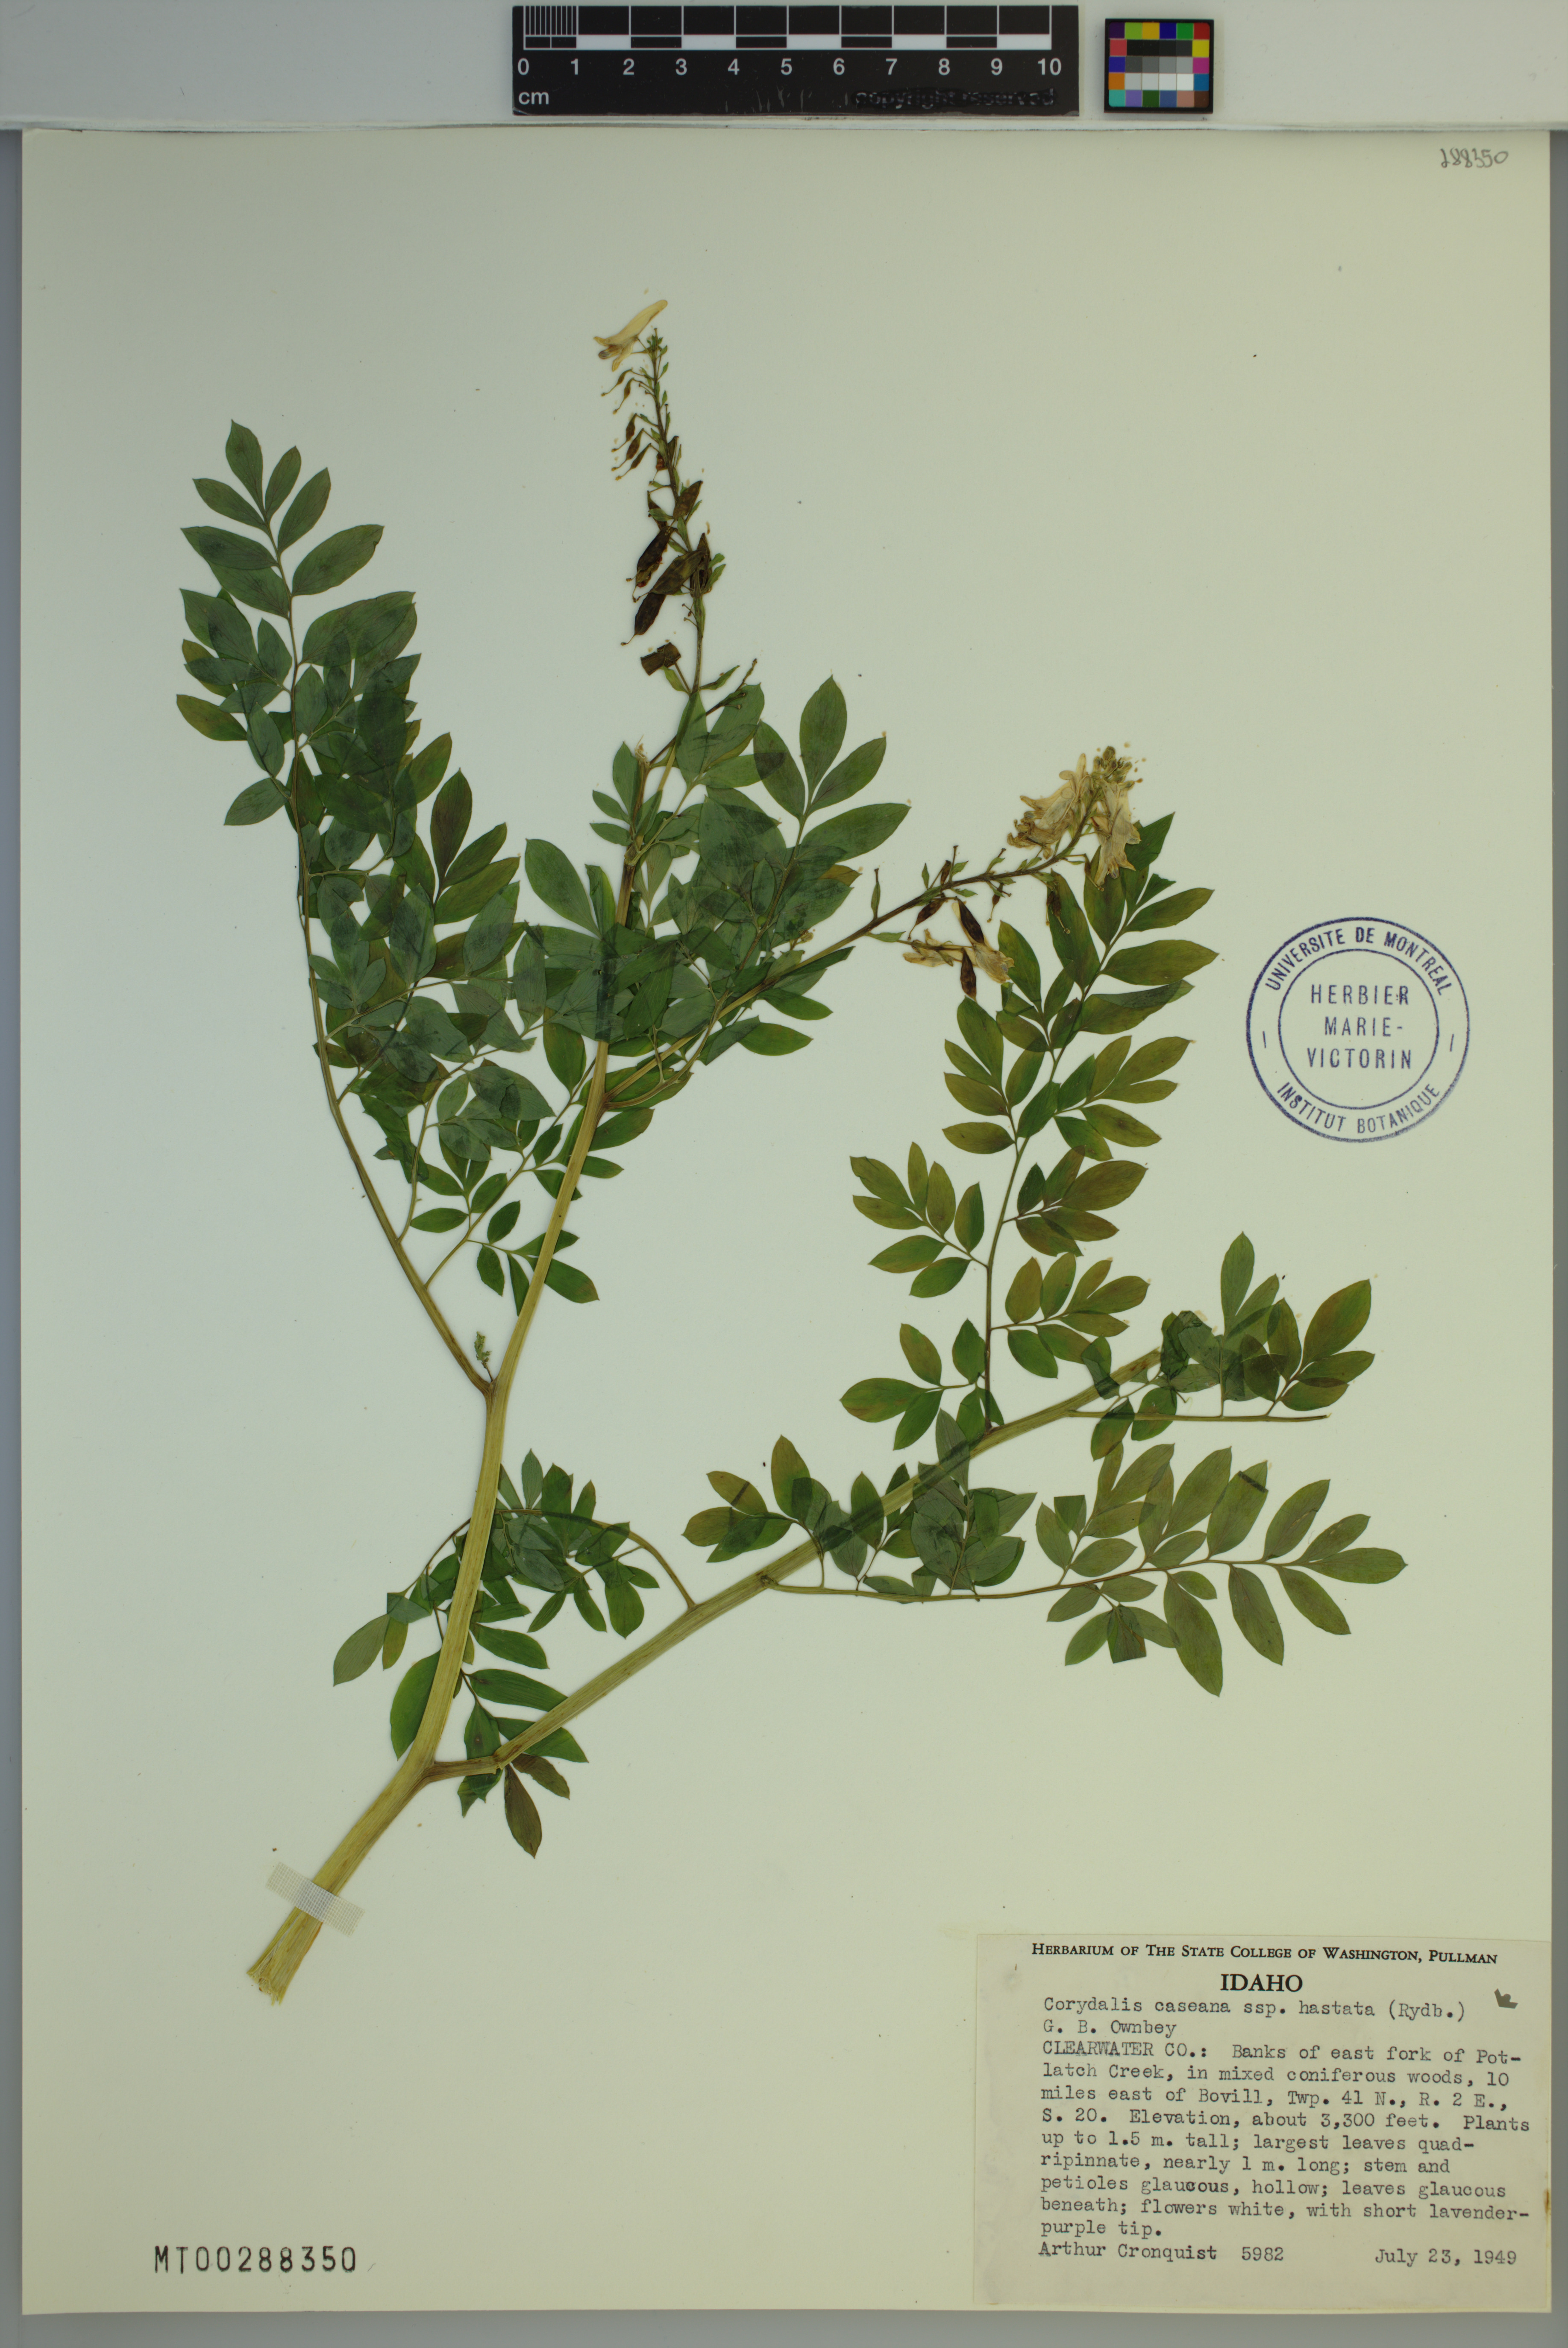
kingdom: Plantae
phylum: Tracheophyta
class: Magnoliopsida
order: Ranunculales
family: Papaveraceae
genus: Corydalis
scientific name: Corydalis caseana
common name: Fitweed
